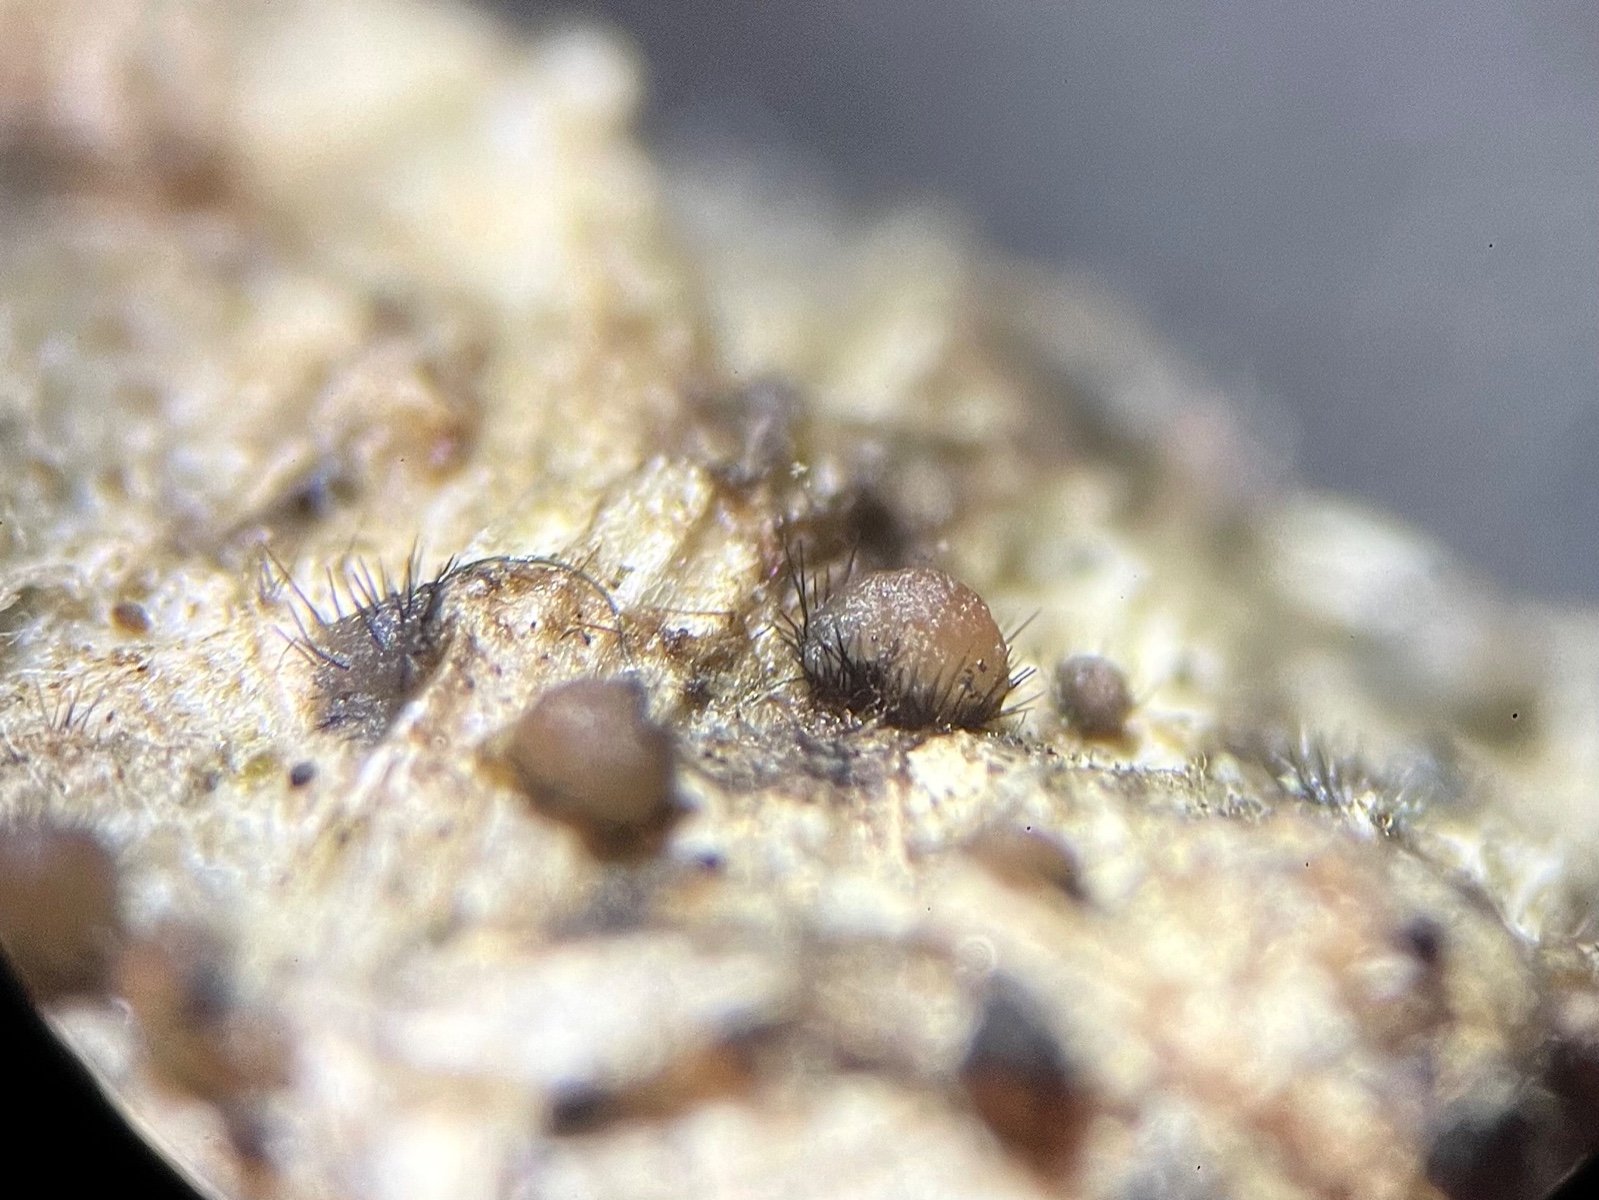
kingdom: Fungi
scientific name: Fungi
